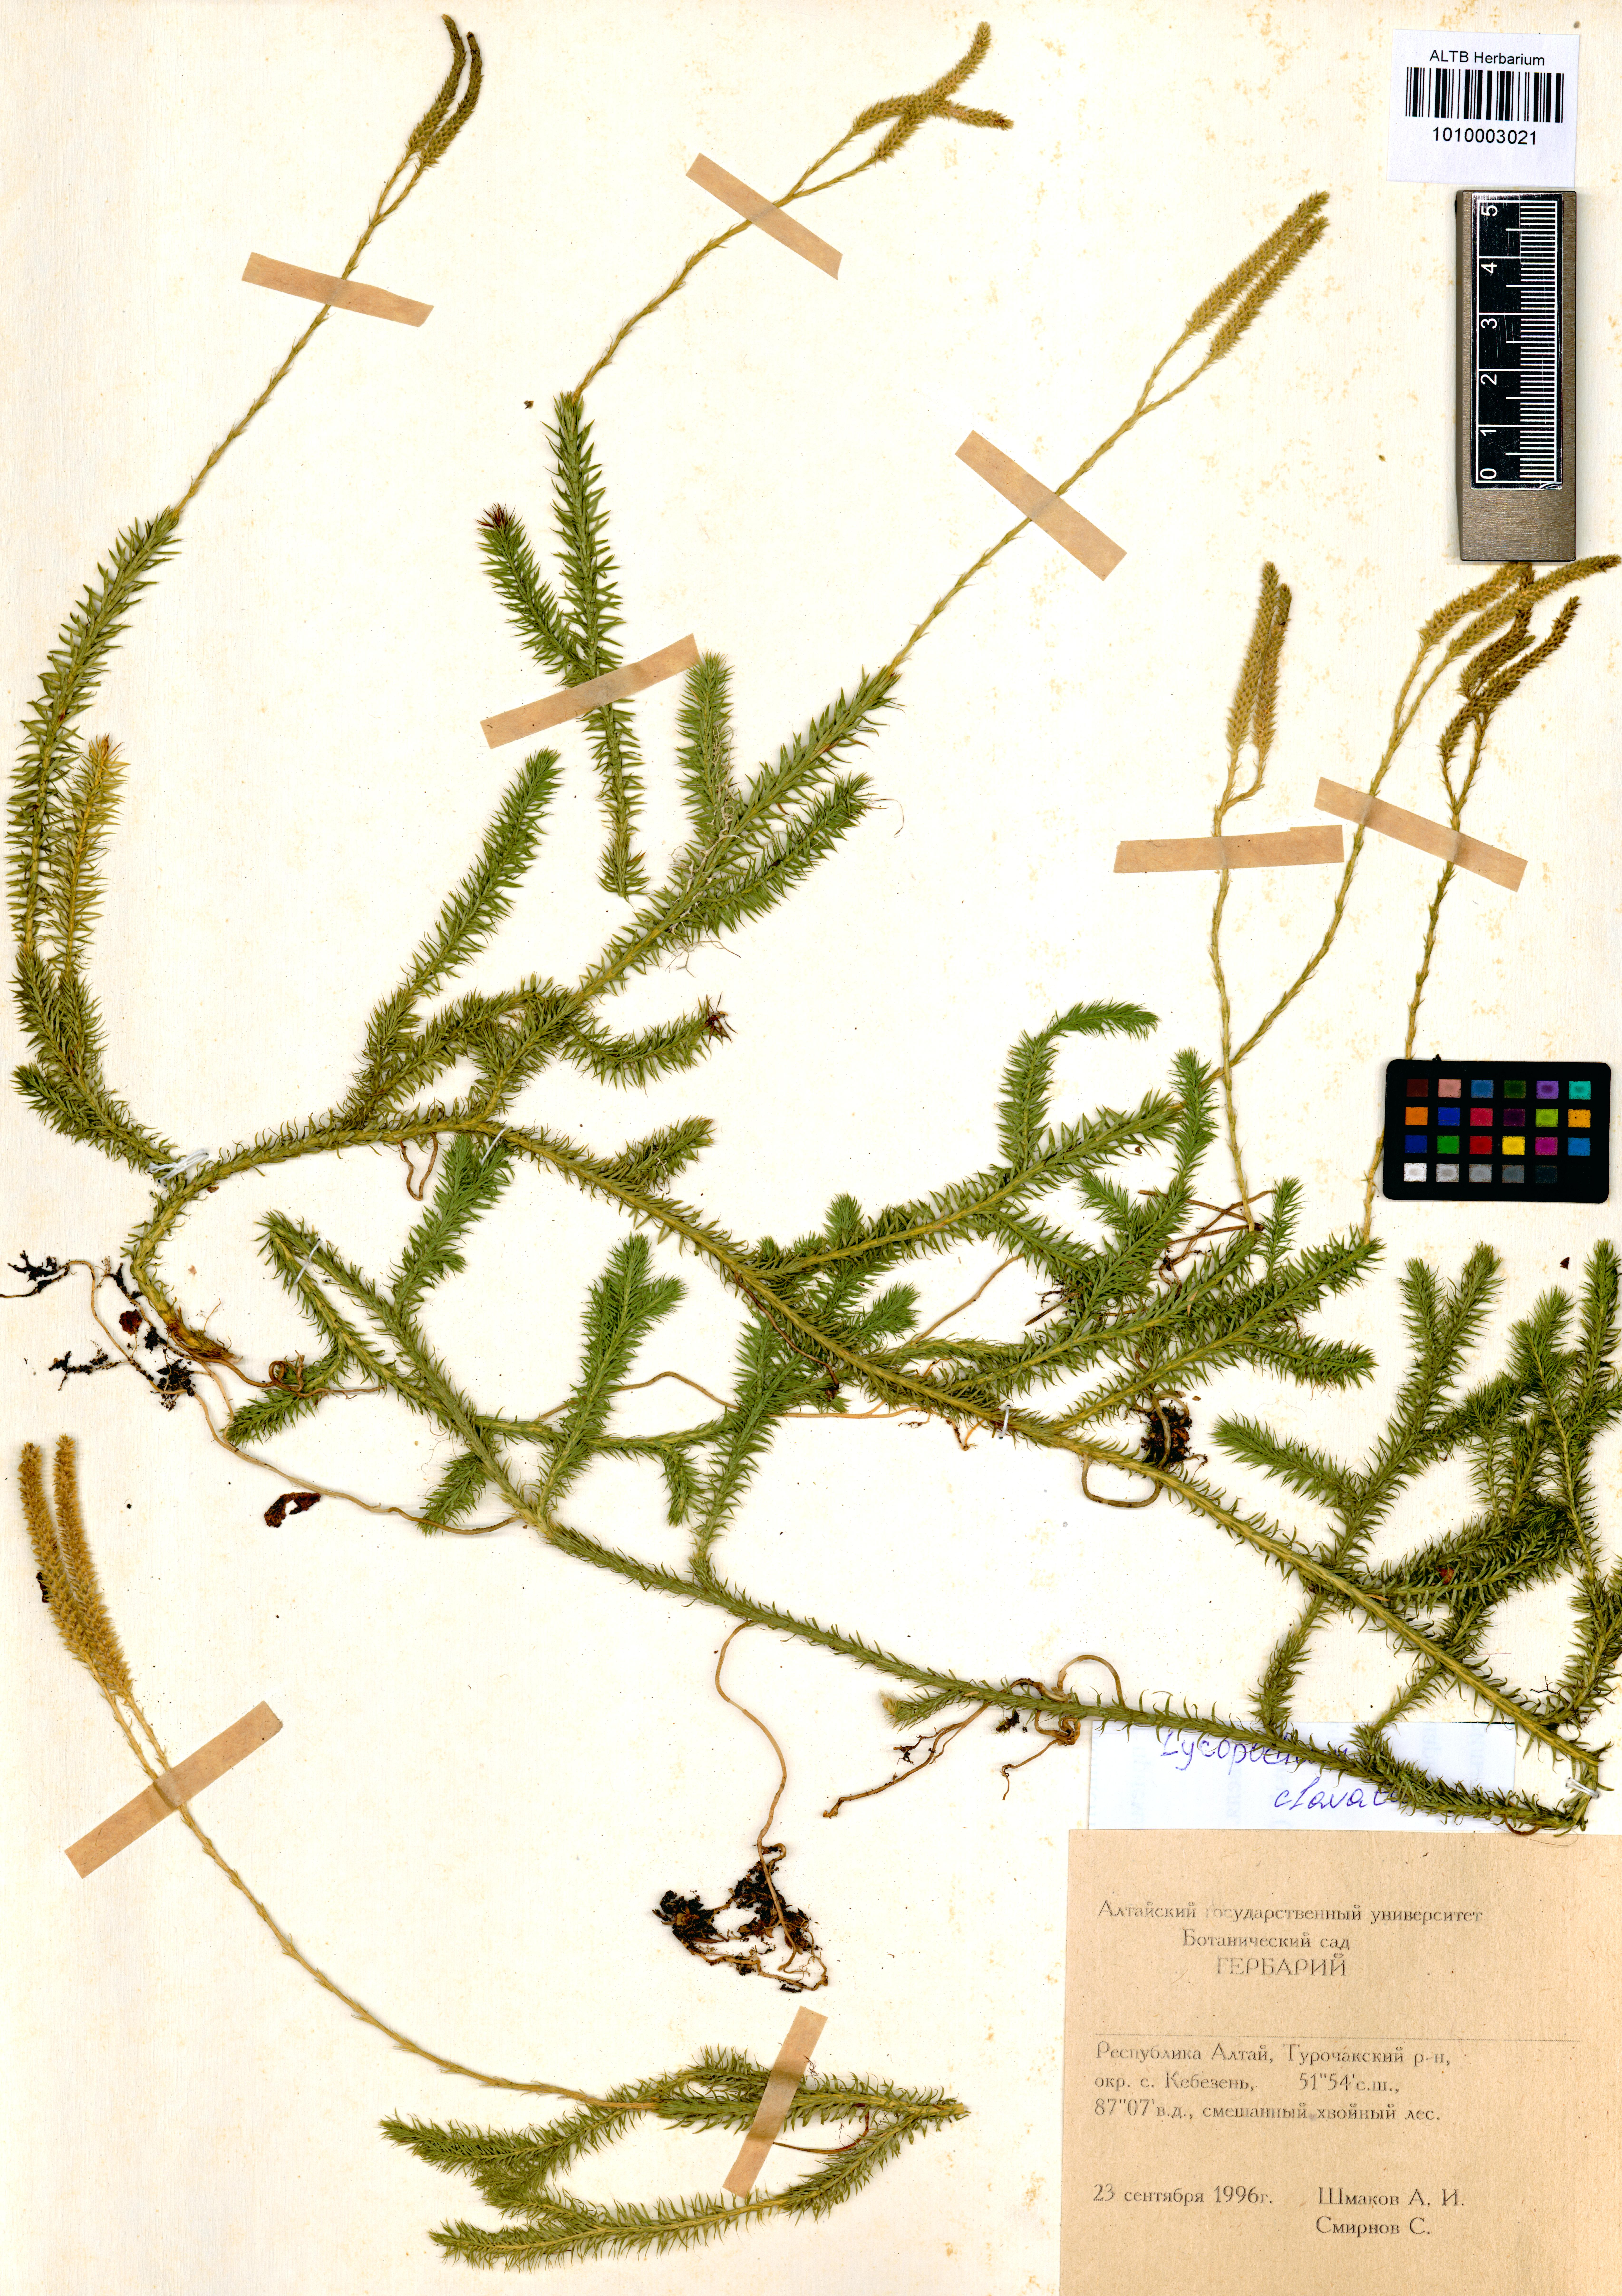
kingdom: Plantae
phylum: Tracheophyta
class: Lycopodiopsida
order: Lycopodiales
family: Lycopodiaceae
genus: Lycopodium
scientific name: Lycopodium clavatum
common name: Stag's-horn clubmoss
